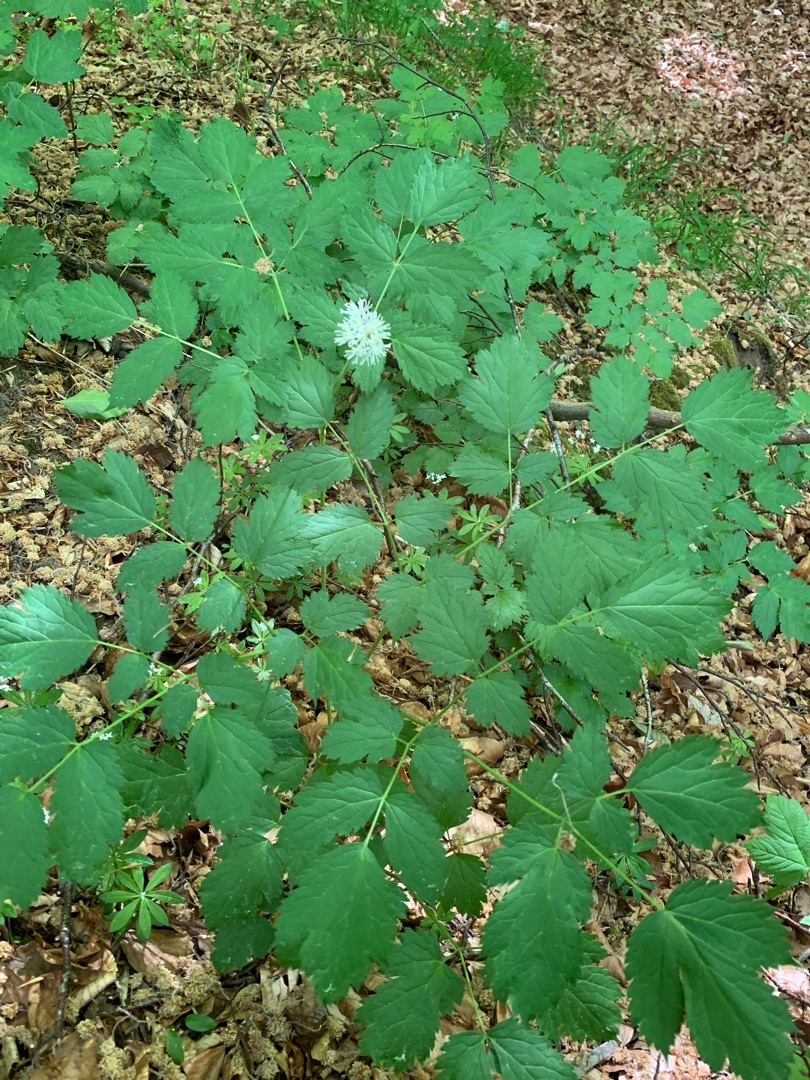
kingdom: Plantae
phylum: Tracheophyta
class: Magnoliopsida
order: Ranunculales
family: Ranunculaceae
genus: Actaea
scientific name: Actaea spicata
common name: Druemunke
